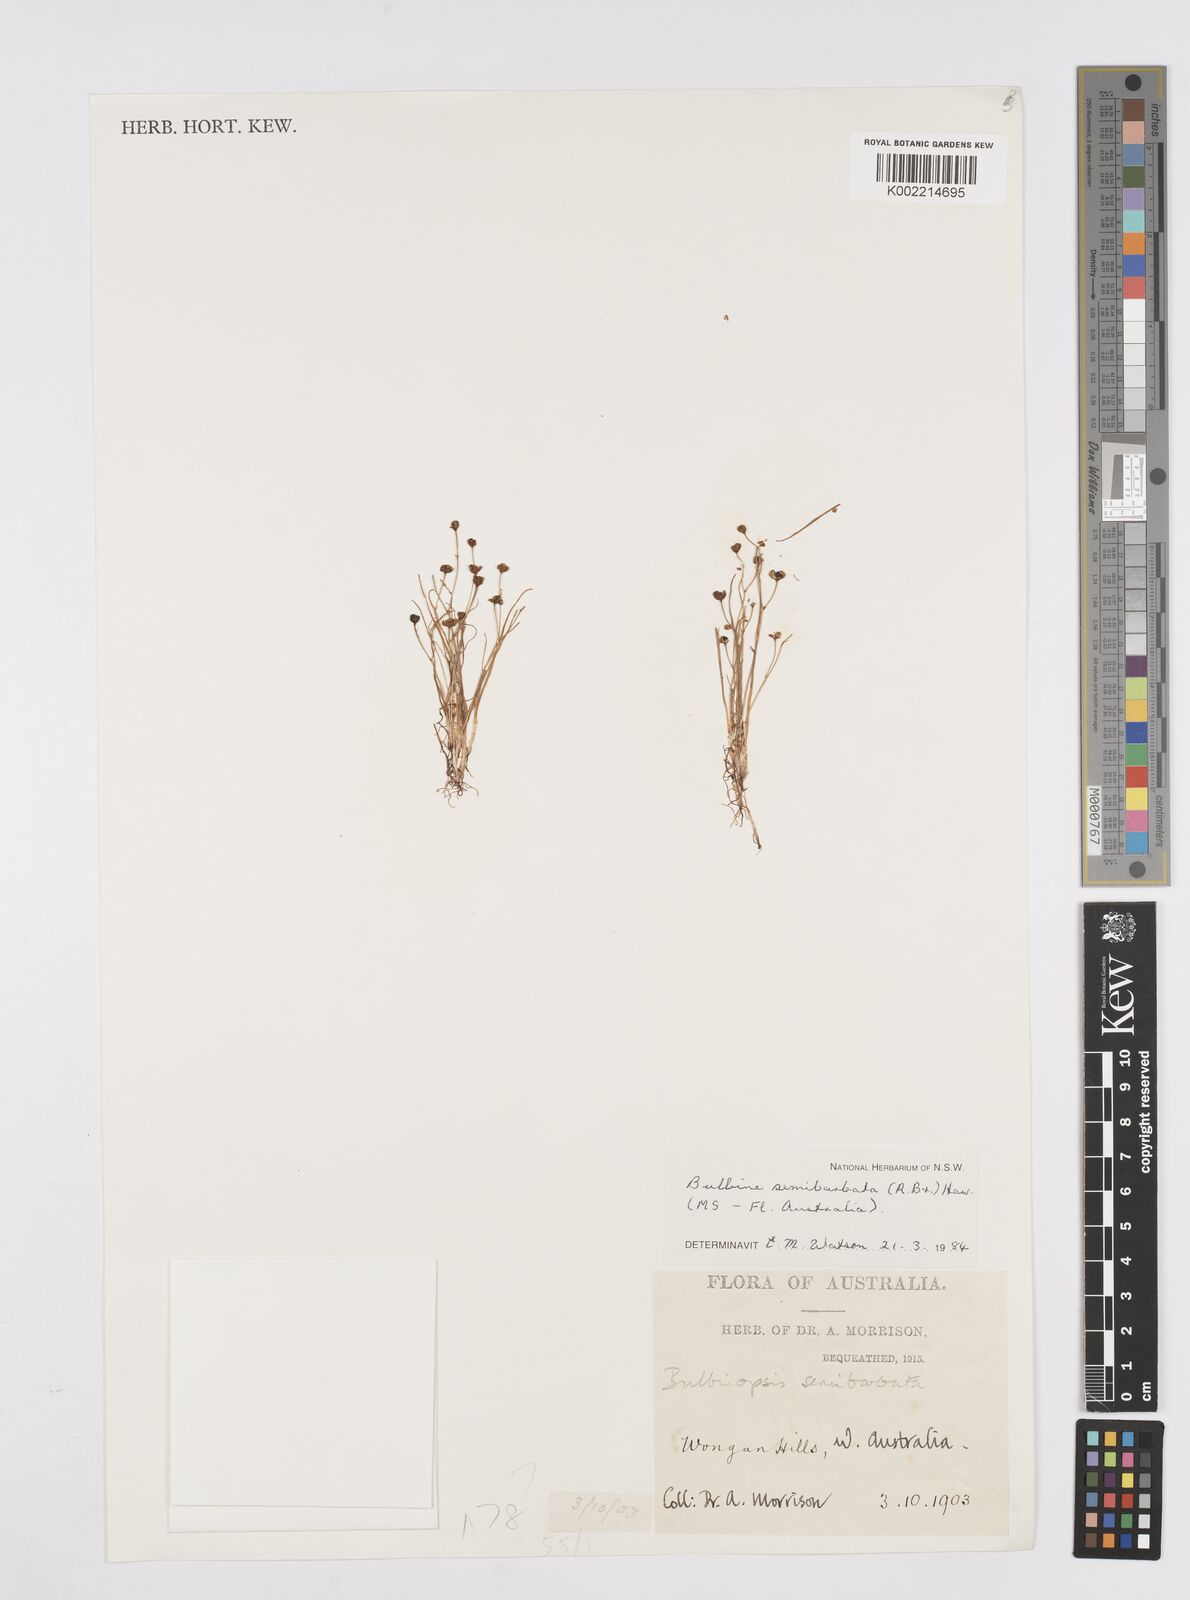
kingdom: Plantae
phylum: Tracheophyta
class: Liliopsida
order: Asparagales
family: Asphodelaceae
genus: Bulbine
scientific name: Bulbine semibarbata
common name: Leek lily
